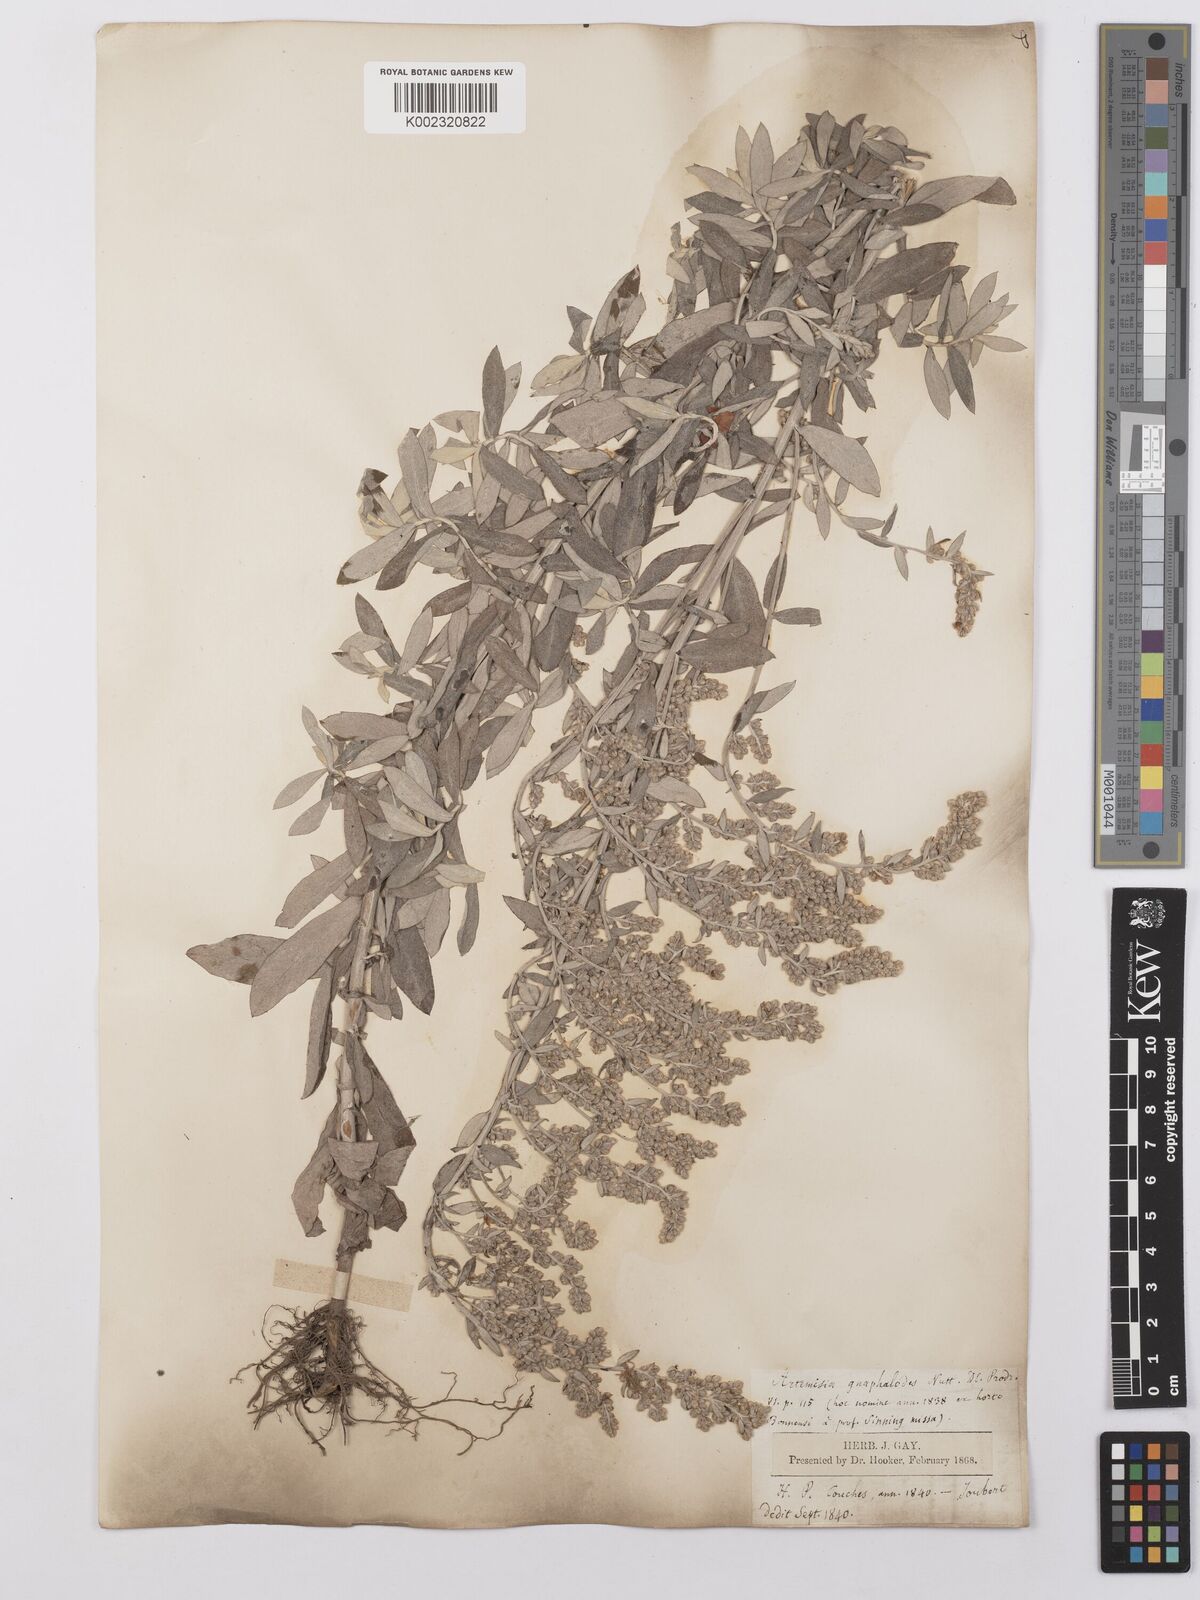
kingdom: Plantae
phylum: Tracheophyta
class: Magnoliopsida
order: Asterales
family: Asteraceae
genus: Artemisia
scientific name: Artemisia ludoviciana
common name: Western mugwort
